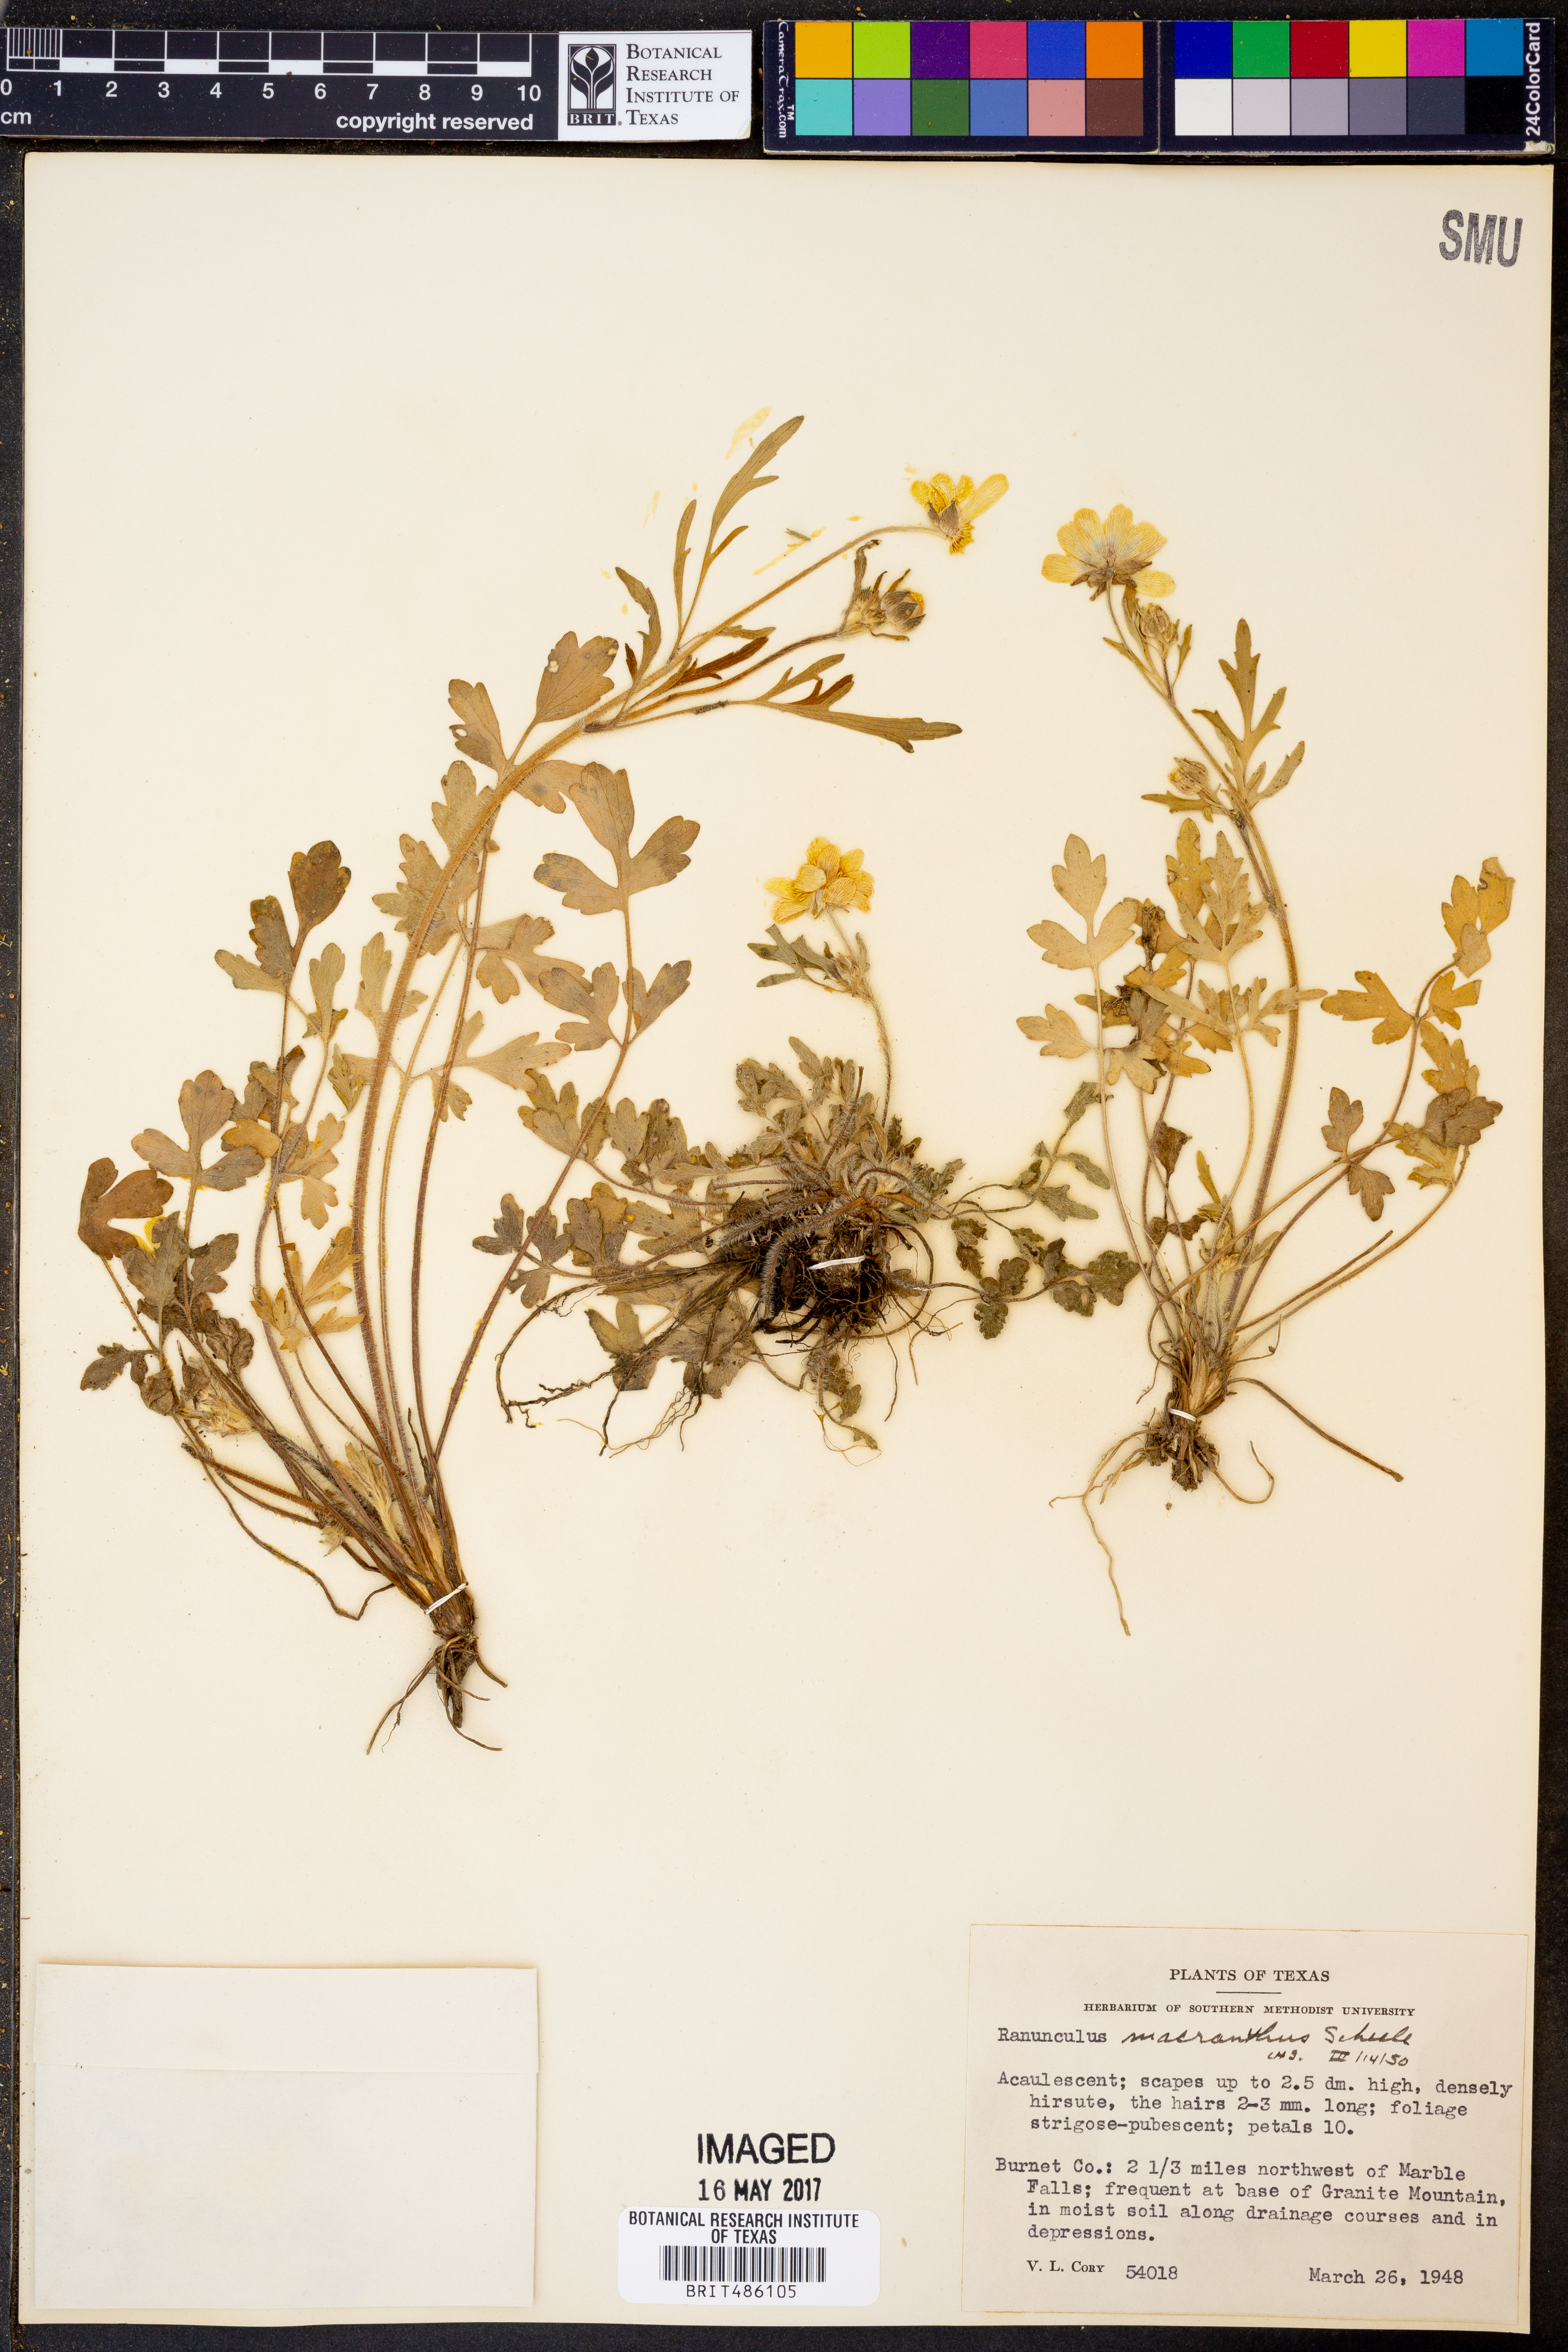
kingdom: Plantae
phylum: Tracheophyta
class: Magnoliopsida
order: Ranunculales
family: Ranunculaceae
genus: Ranunculus
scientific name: Ranunculus macranthus
